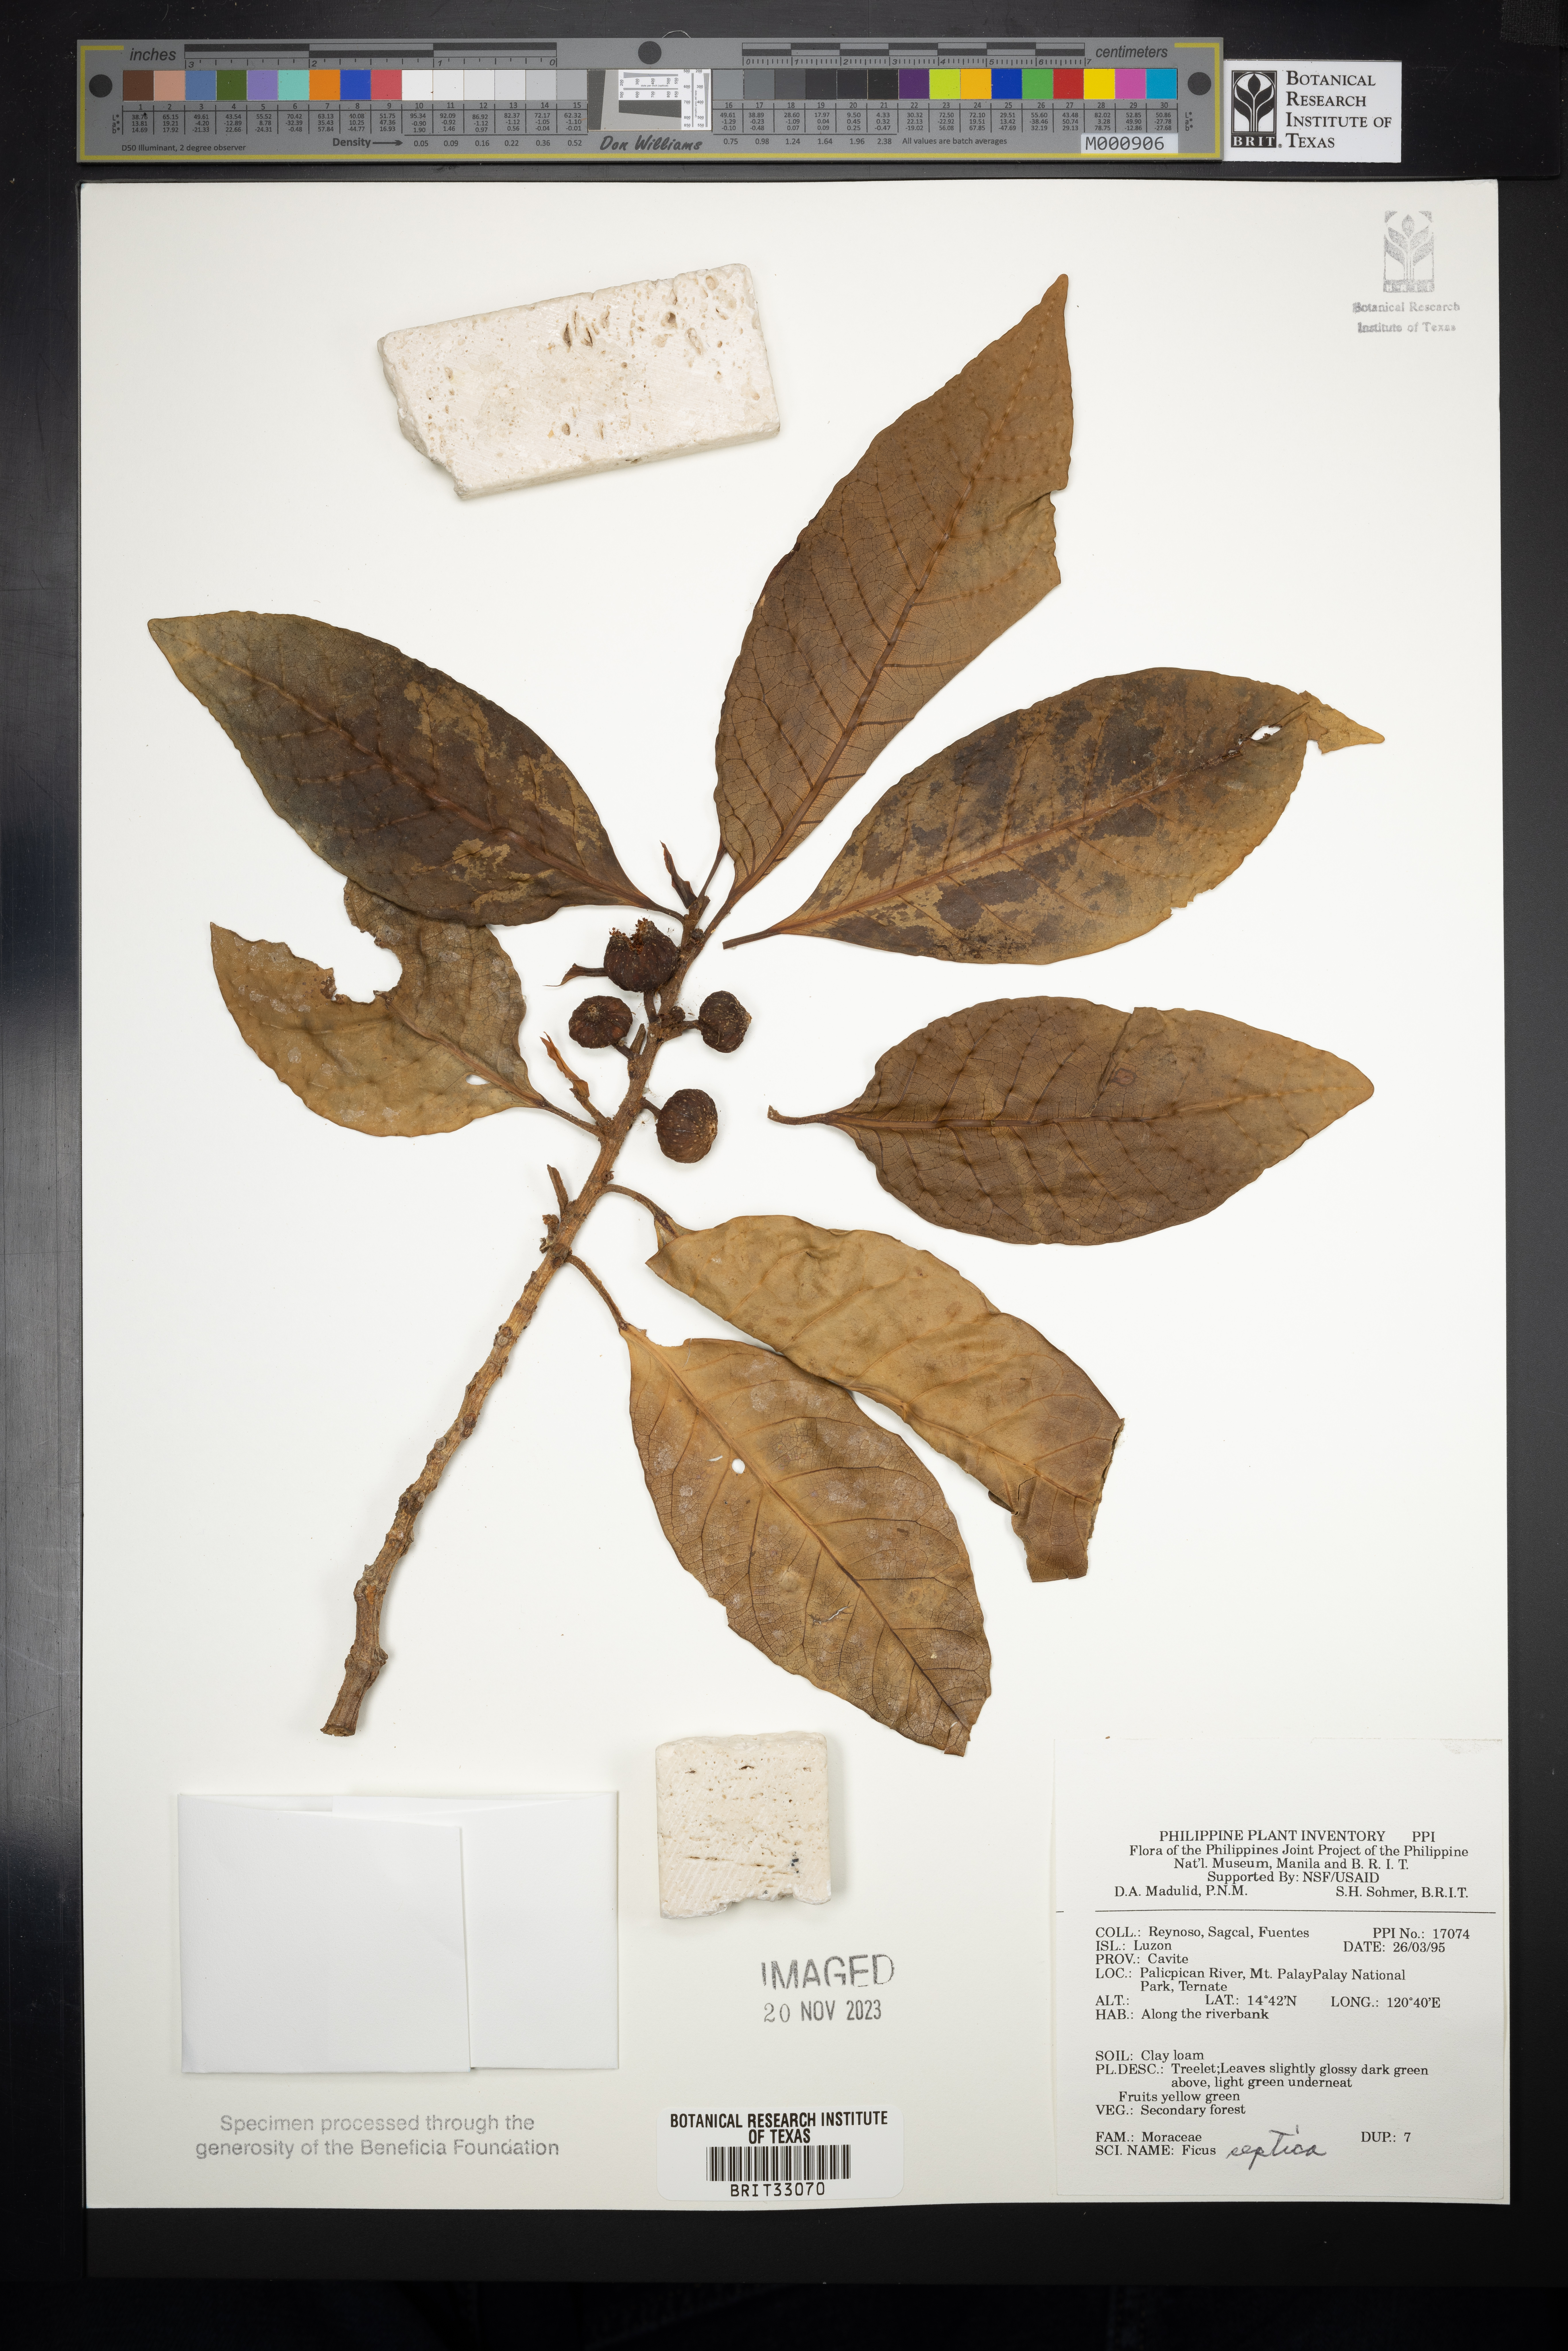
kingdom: Plantae
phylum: Tracheophyta
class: Magnoliopsida
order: Rosales
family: Moraceae
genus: Ficus
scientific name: Ficus septica
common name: Septic fig
